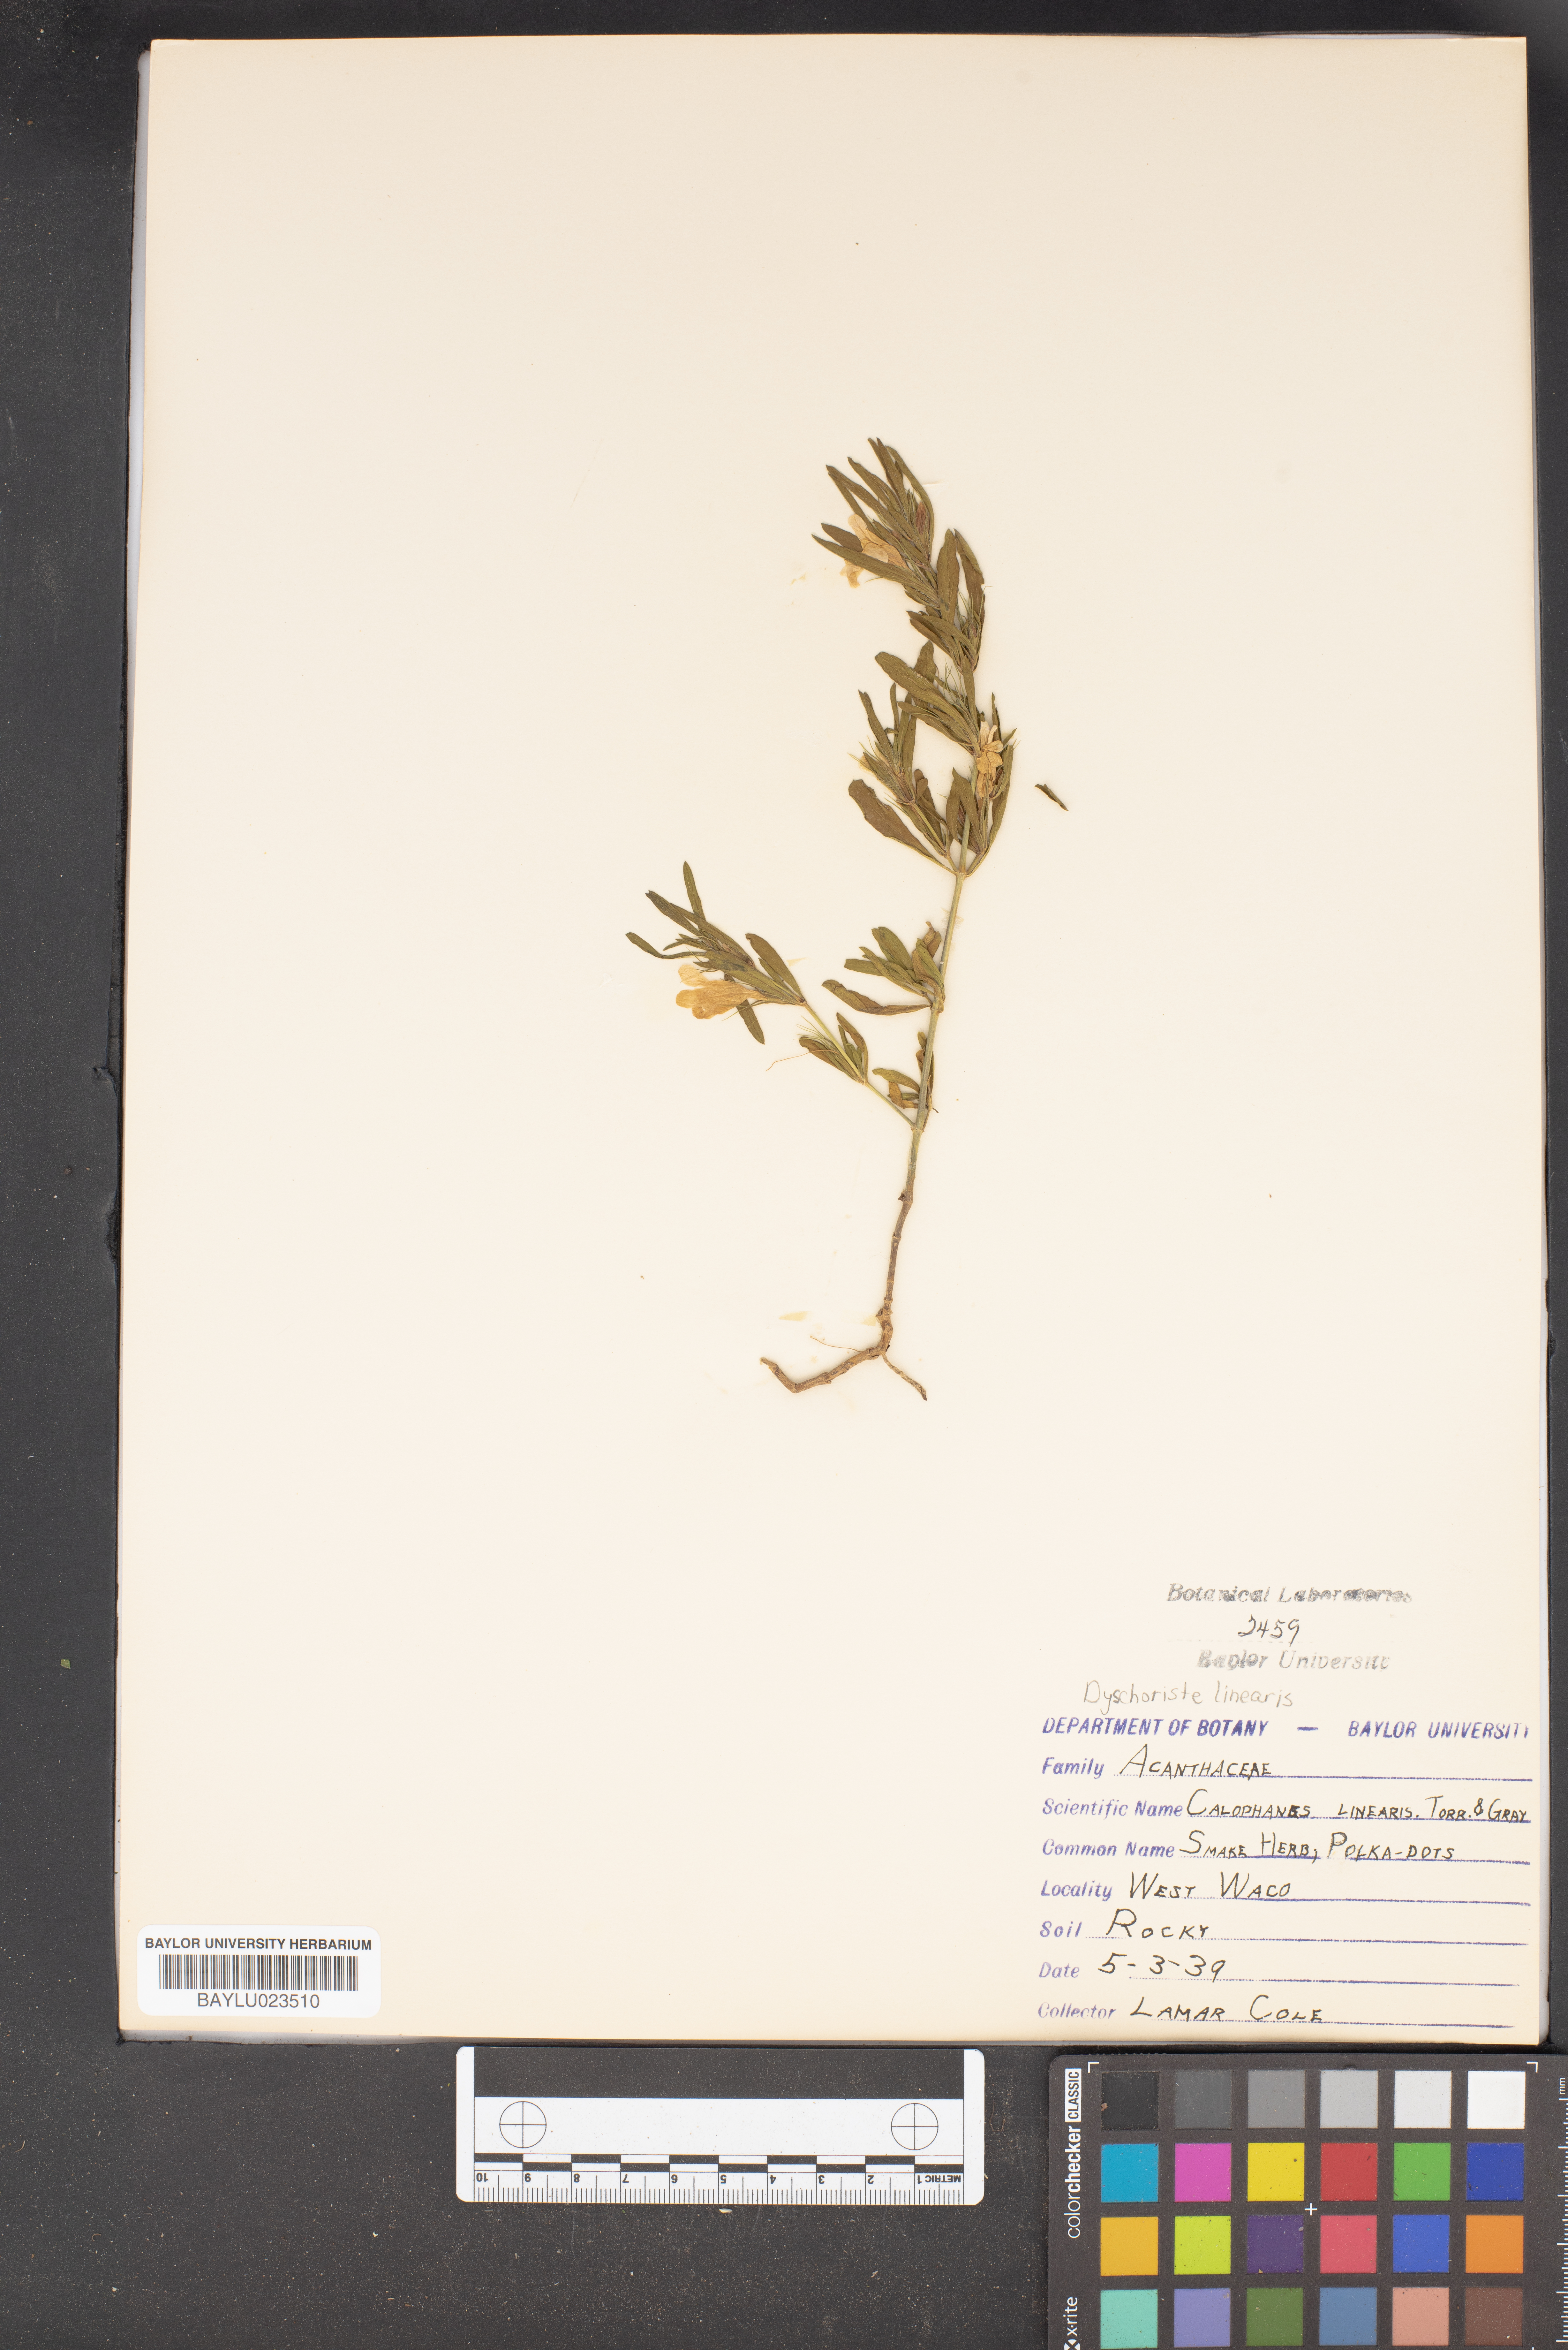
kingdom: Plantae
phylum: Tracheophyta
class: Magnoliopsida
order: Lamiales
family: Acanthaceae
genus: Dyschoriste
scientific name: Dyschoriste linearis
